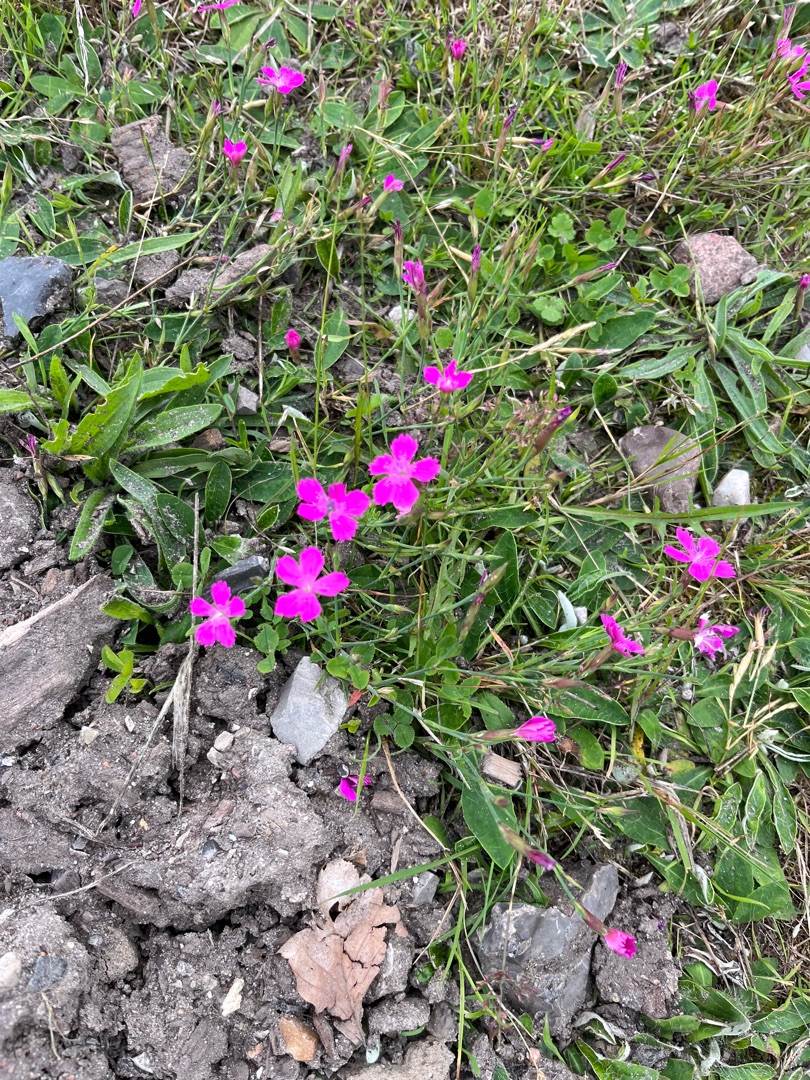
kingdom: Plantae
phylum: Tracheophyta
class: Magnoliopsida
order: Caryophyllales
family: Caryophyllaceae
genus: Dianthus
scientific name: Dianthus deltoides
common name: Bakke-nellike
